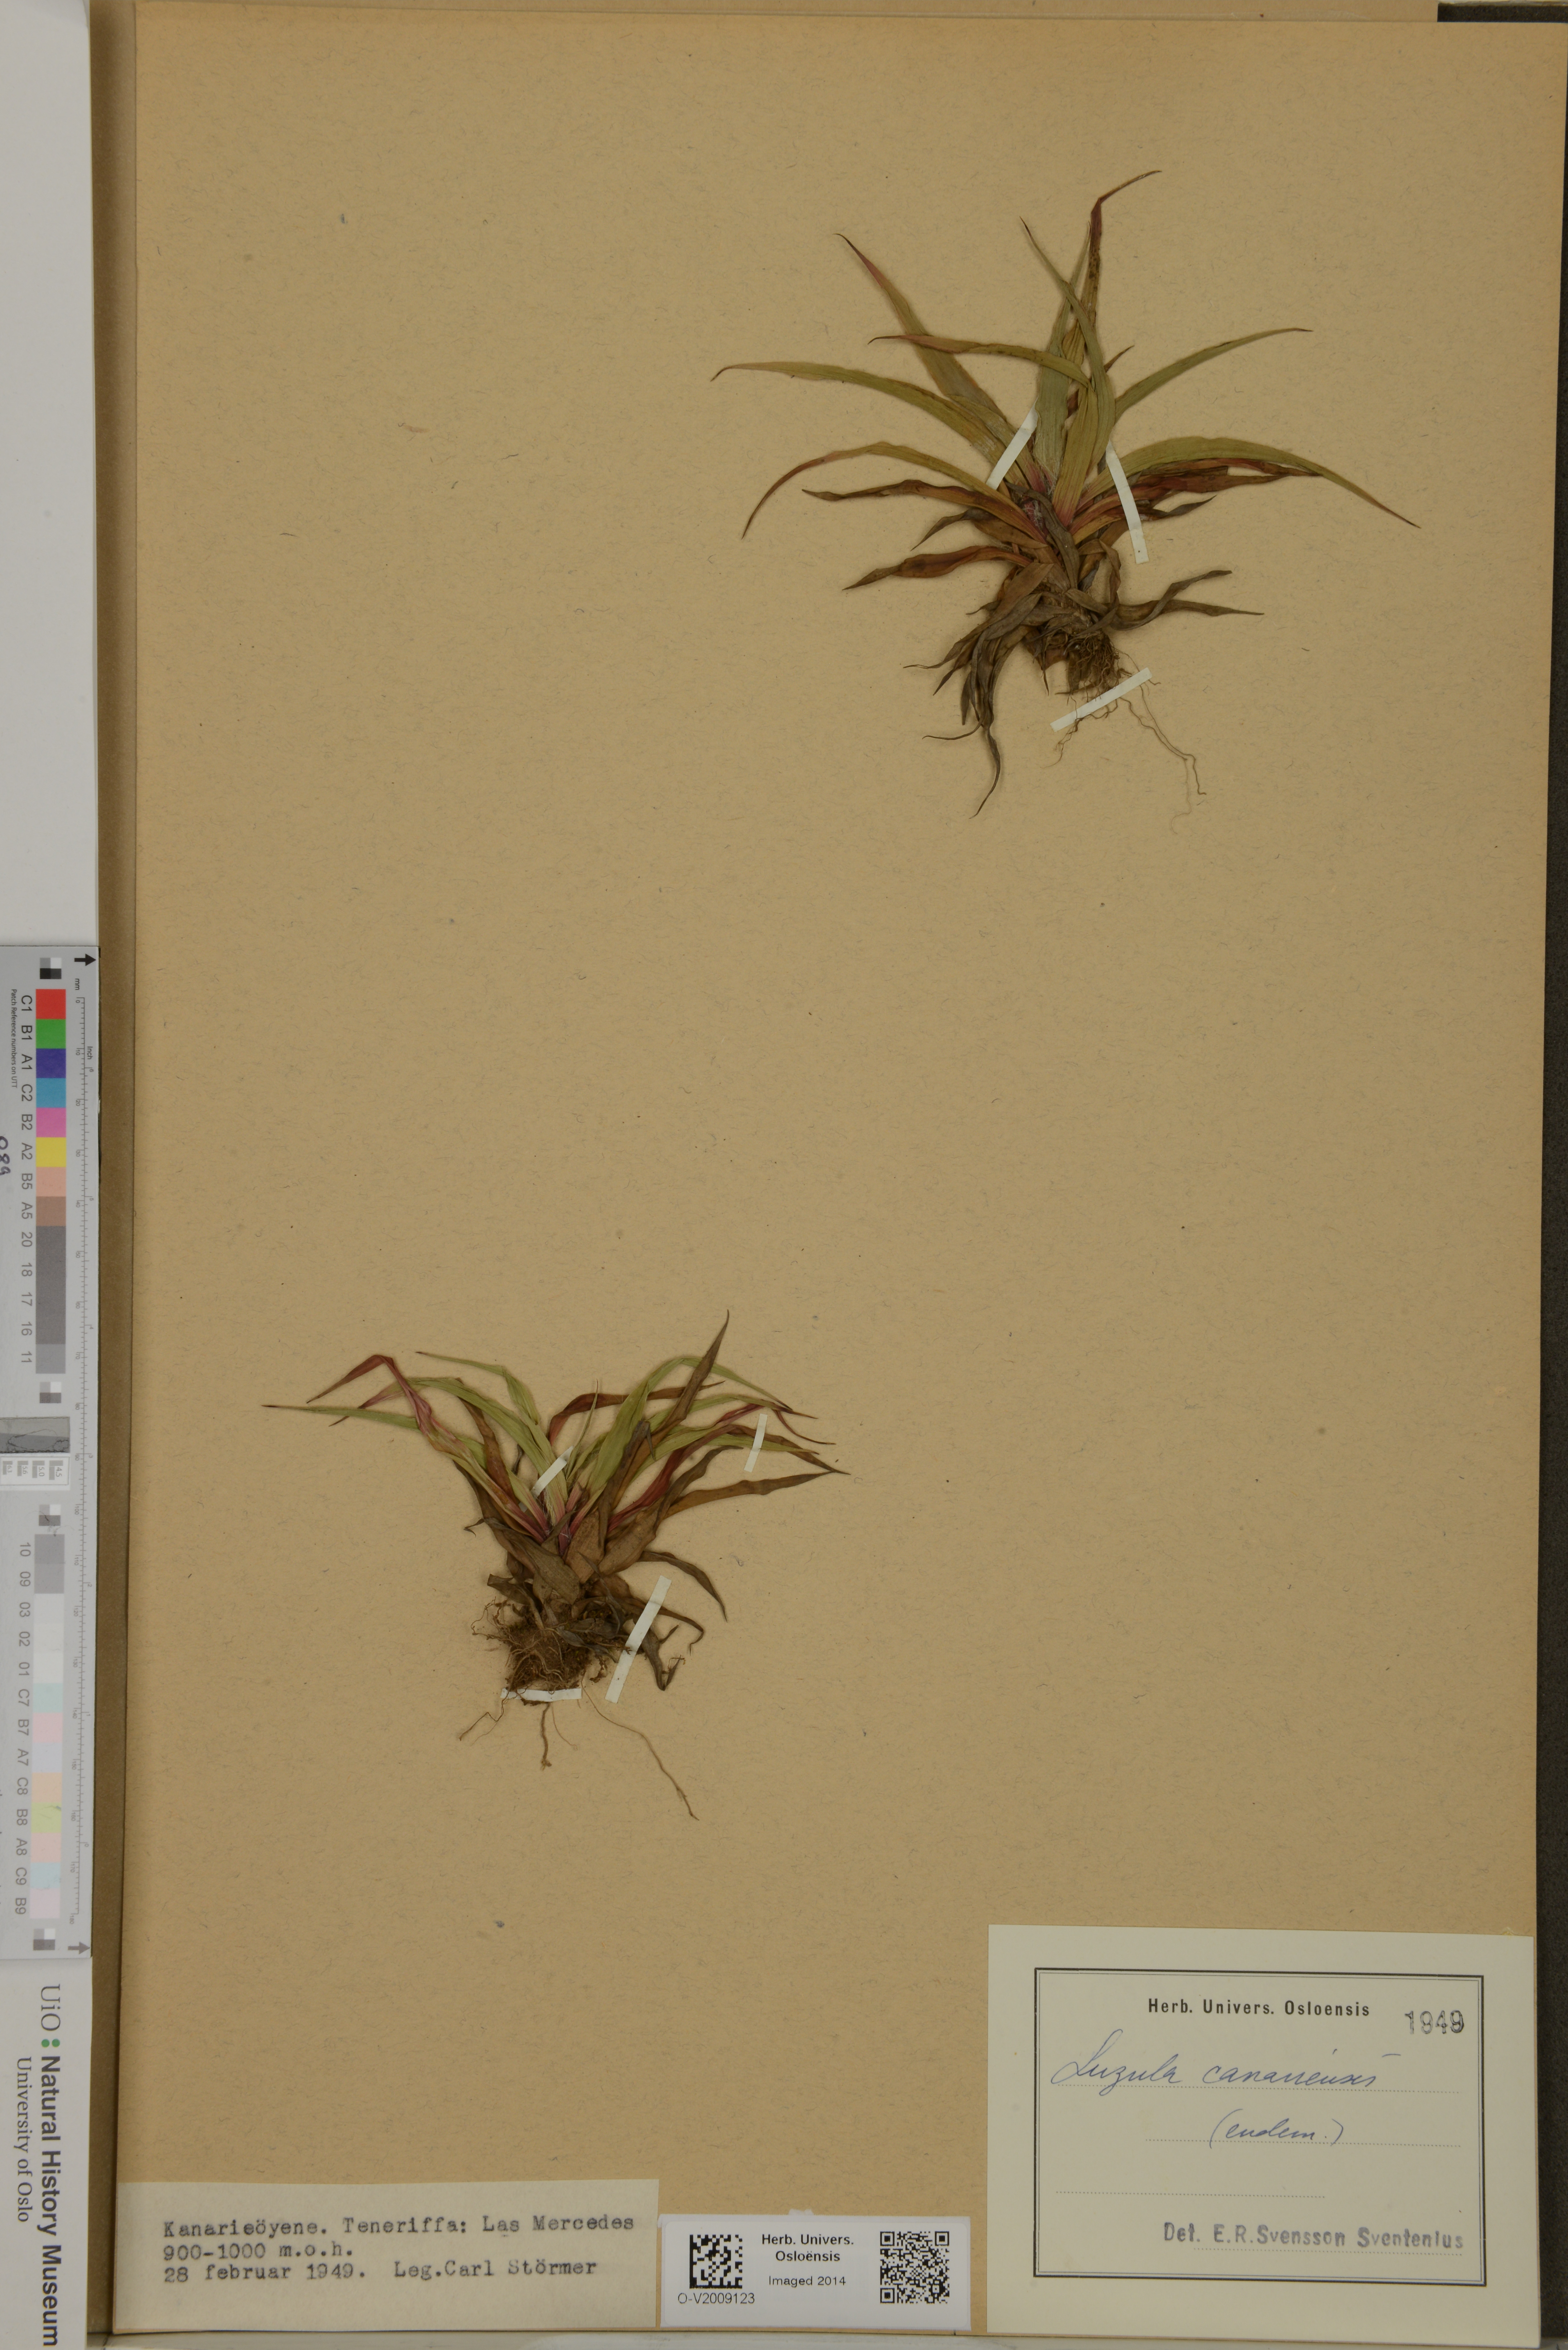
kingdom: Plantae
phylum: Tracheophyta
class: Liliopsida
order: Poales
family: Juncaceae
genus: Luzula
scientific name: Luzula canariensis
